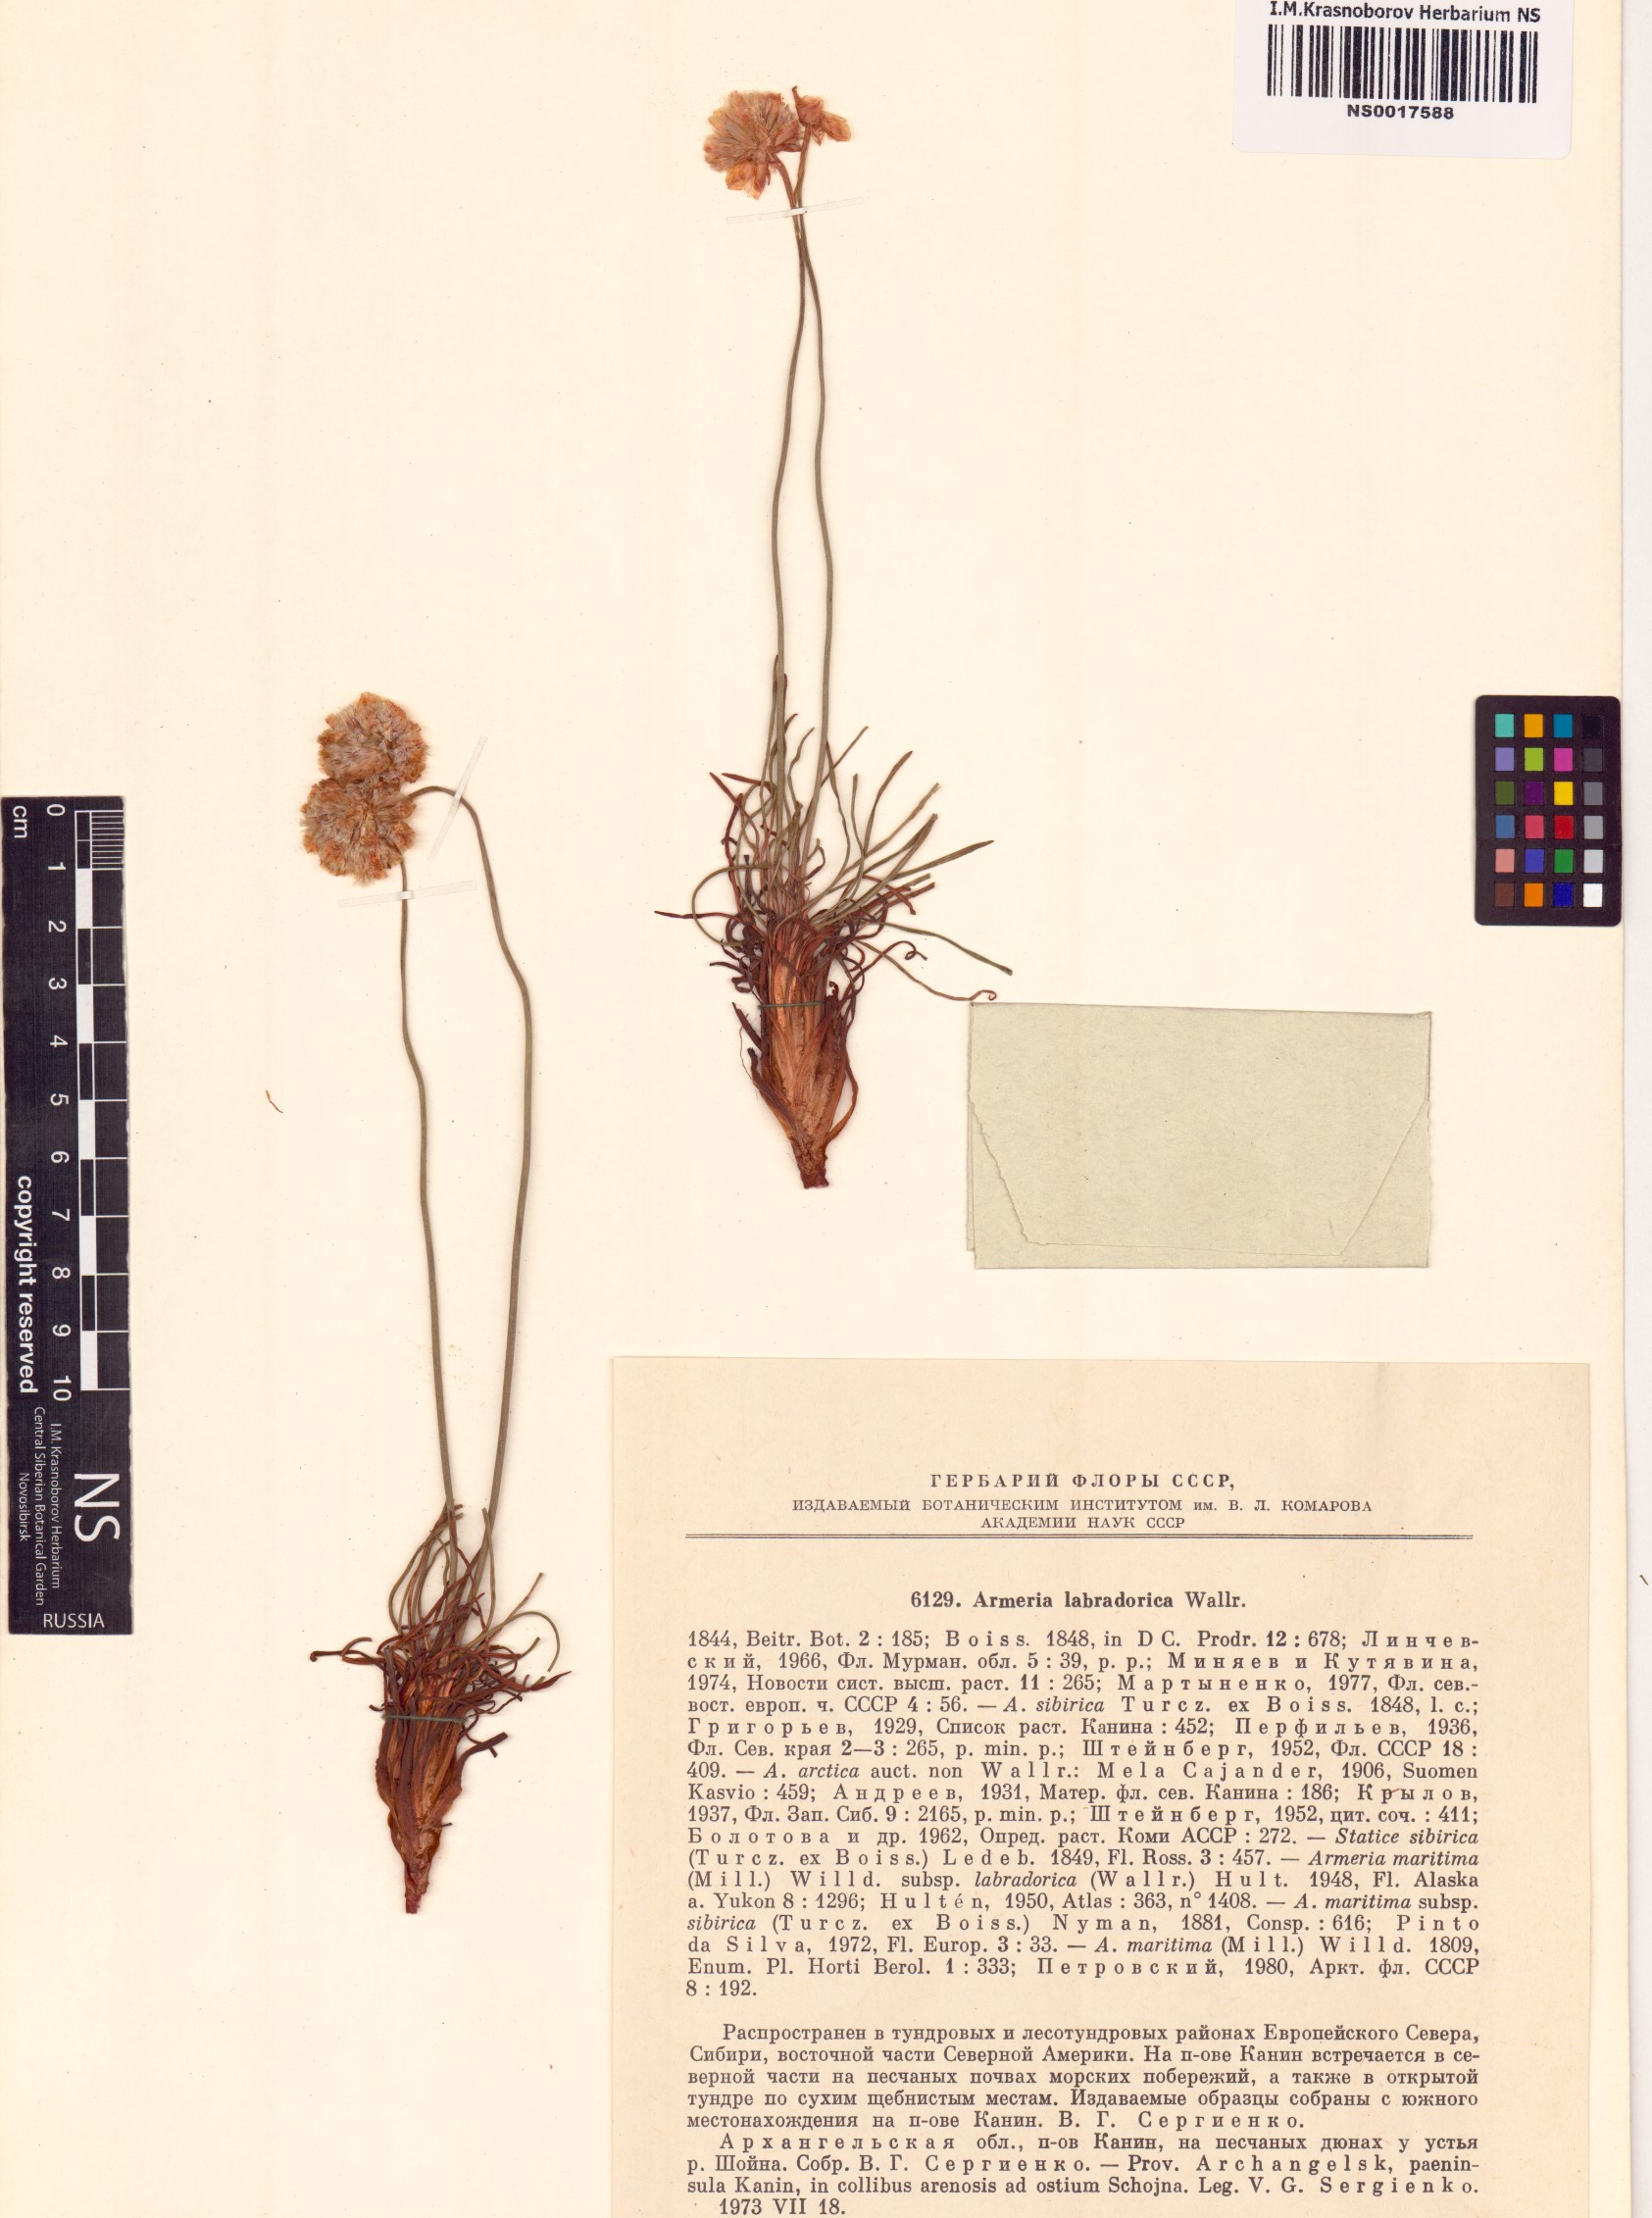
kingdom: Plantae
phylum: Tracheophyta
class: Magnoliopsida
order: Caryophyllales
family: Plumbaginaceae
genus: Armeria
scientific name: Armeria maritima
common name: Thrift
